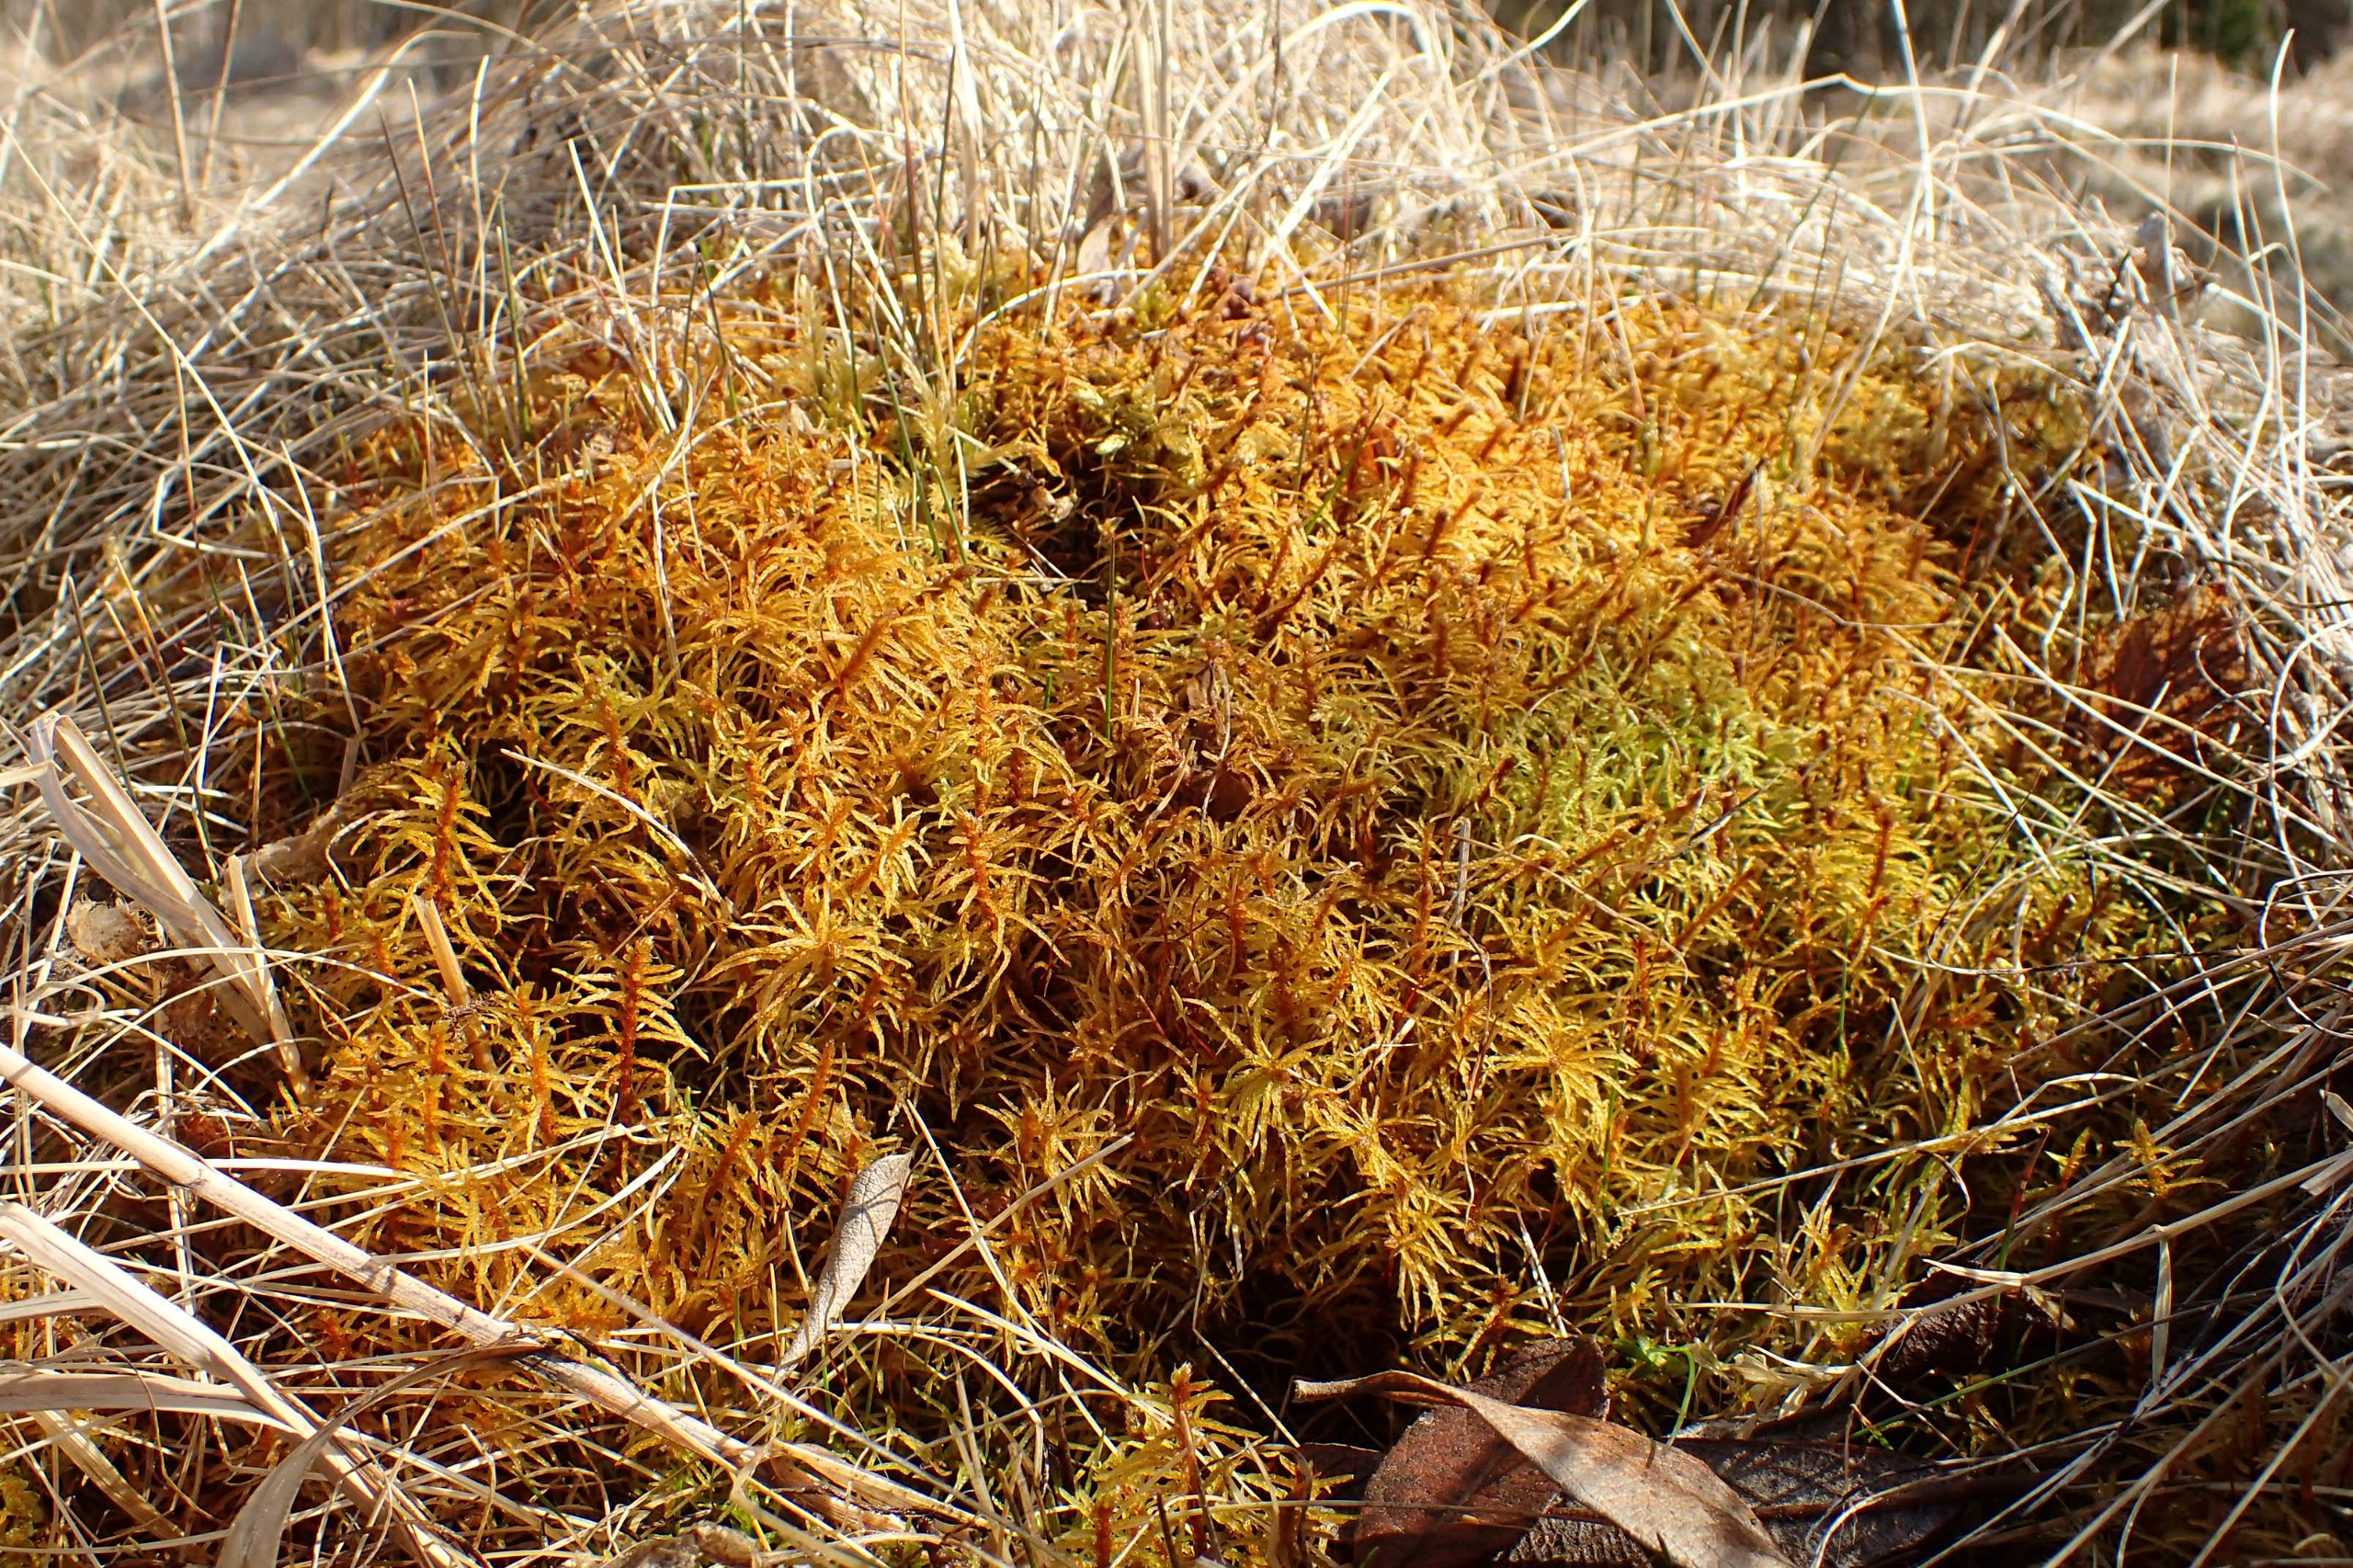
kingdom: Plantae
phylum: Bryophyta
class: Bryopsida
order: Hypnales
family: Helodiaceae
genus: Helodium
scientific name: Helodium blandowii
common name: Kær-gyldenmos
